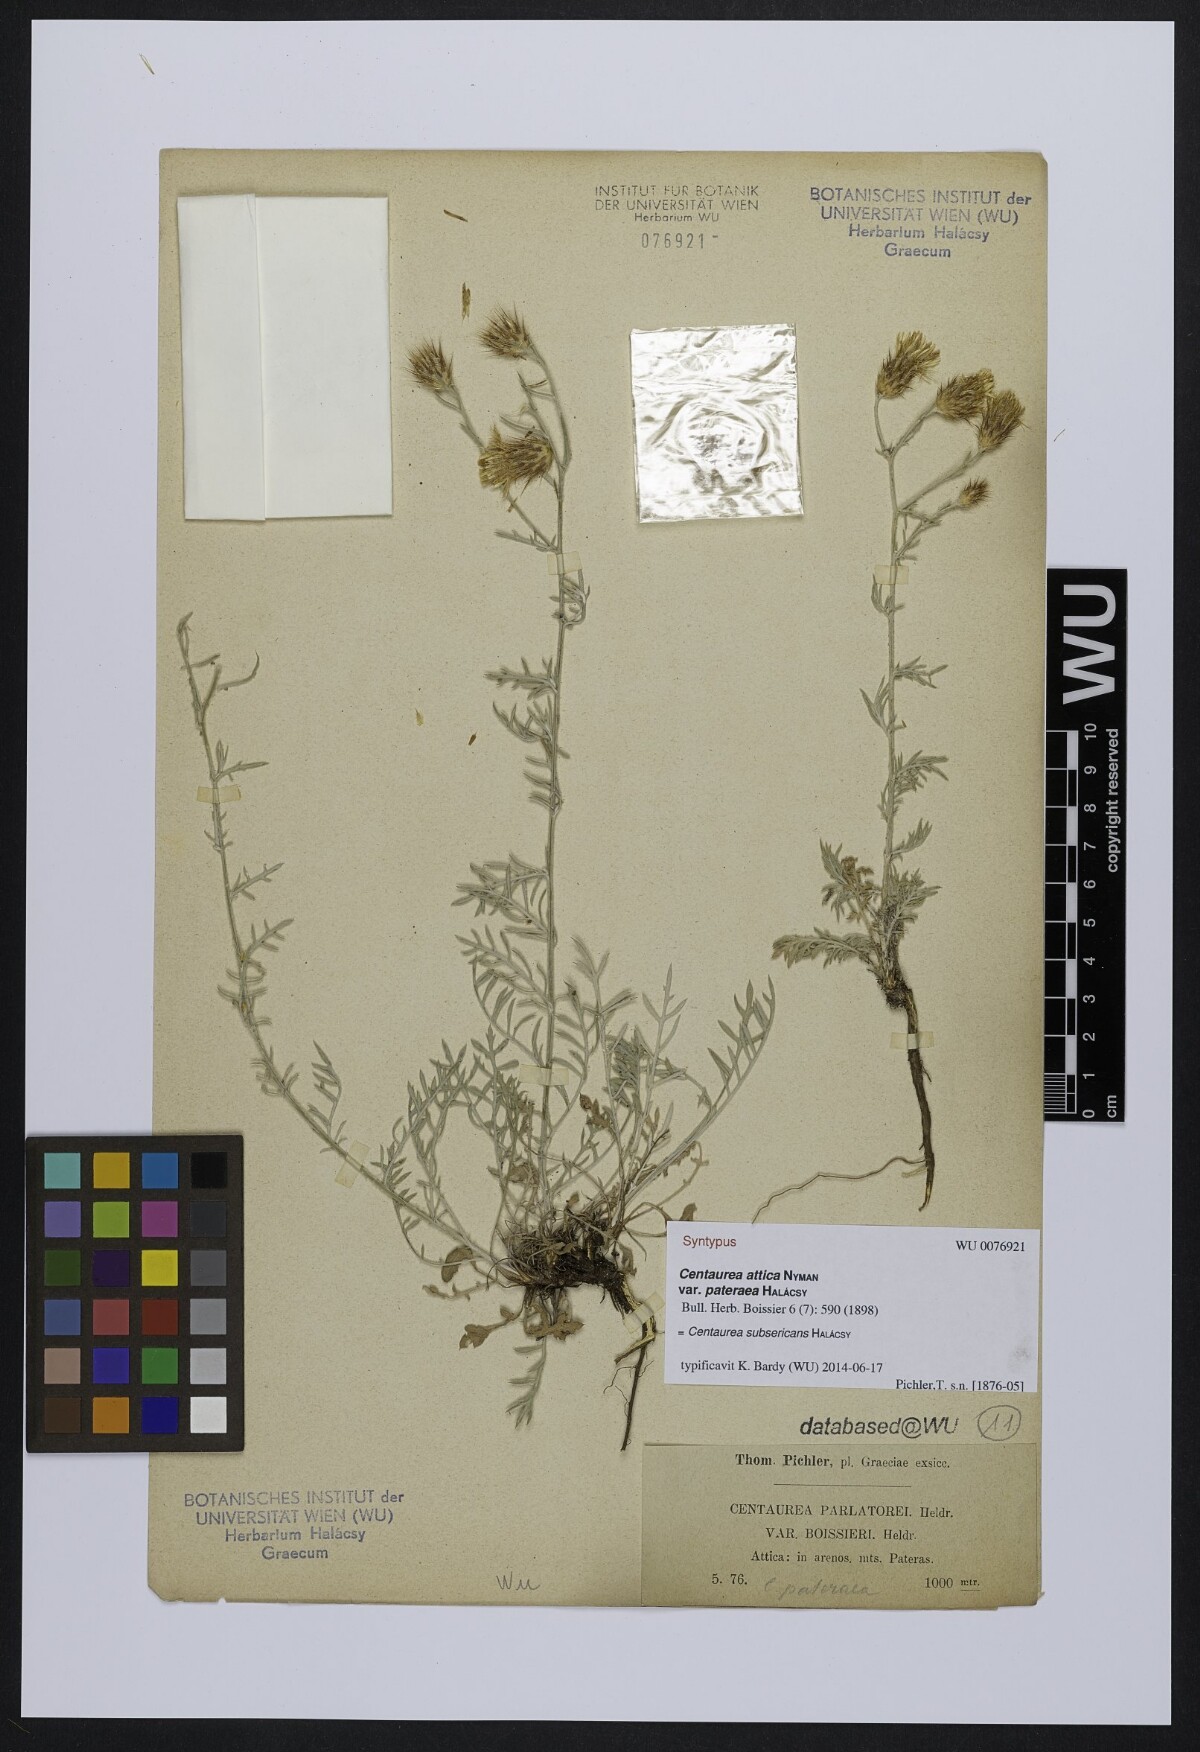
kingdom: Plantae
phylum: Tracheophyta
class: Magnoliopsida
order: Asterales
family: Asteraceae
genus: Centaurea
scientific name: Centaurea subsericans
